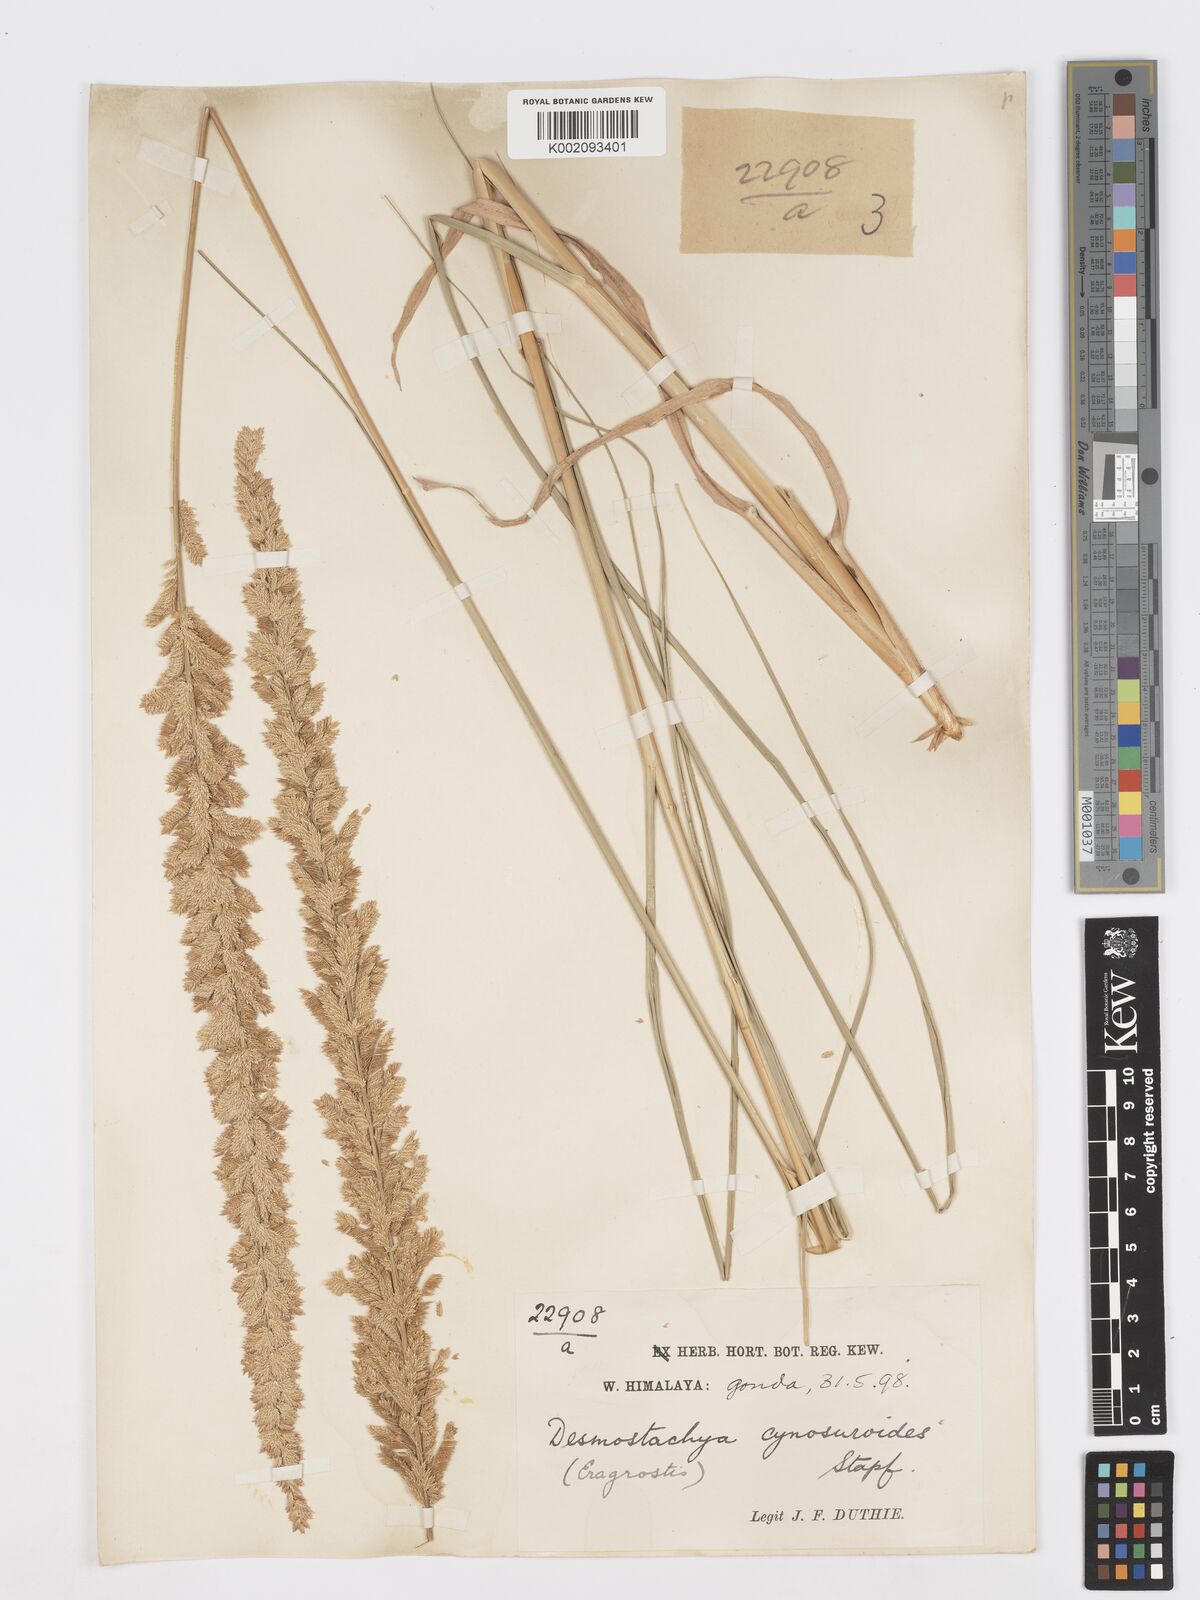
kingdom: Plantae
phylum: Tracheophyta
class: Liliopsida
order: Poales
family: Poaceae
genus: Desmostachya
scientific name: Desmostachya bipinnata
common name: Crowfoot grass
